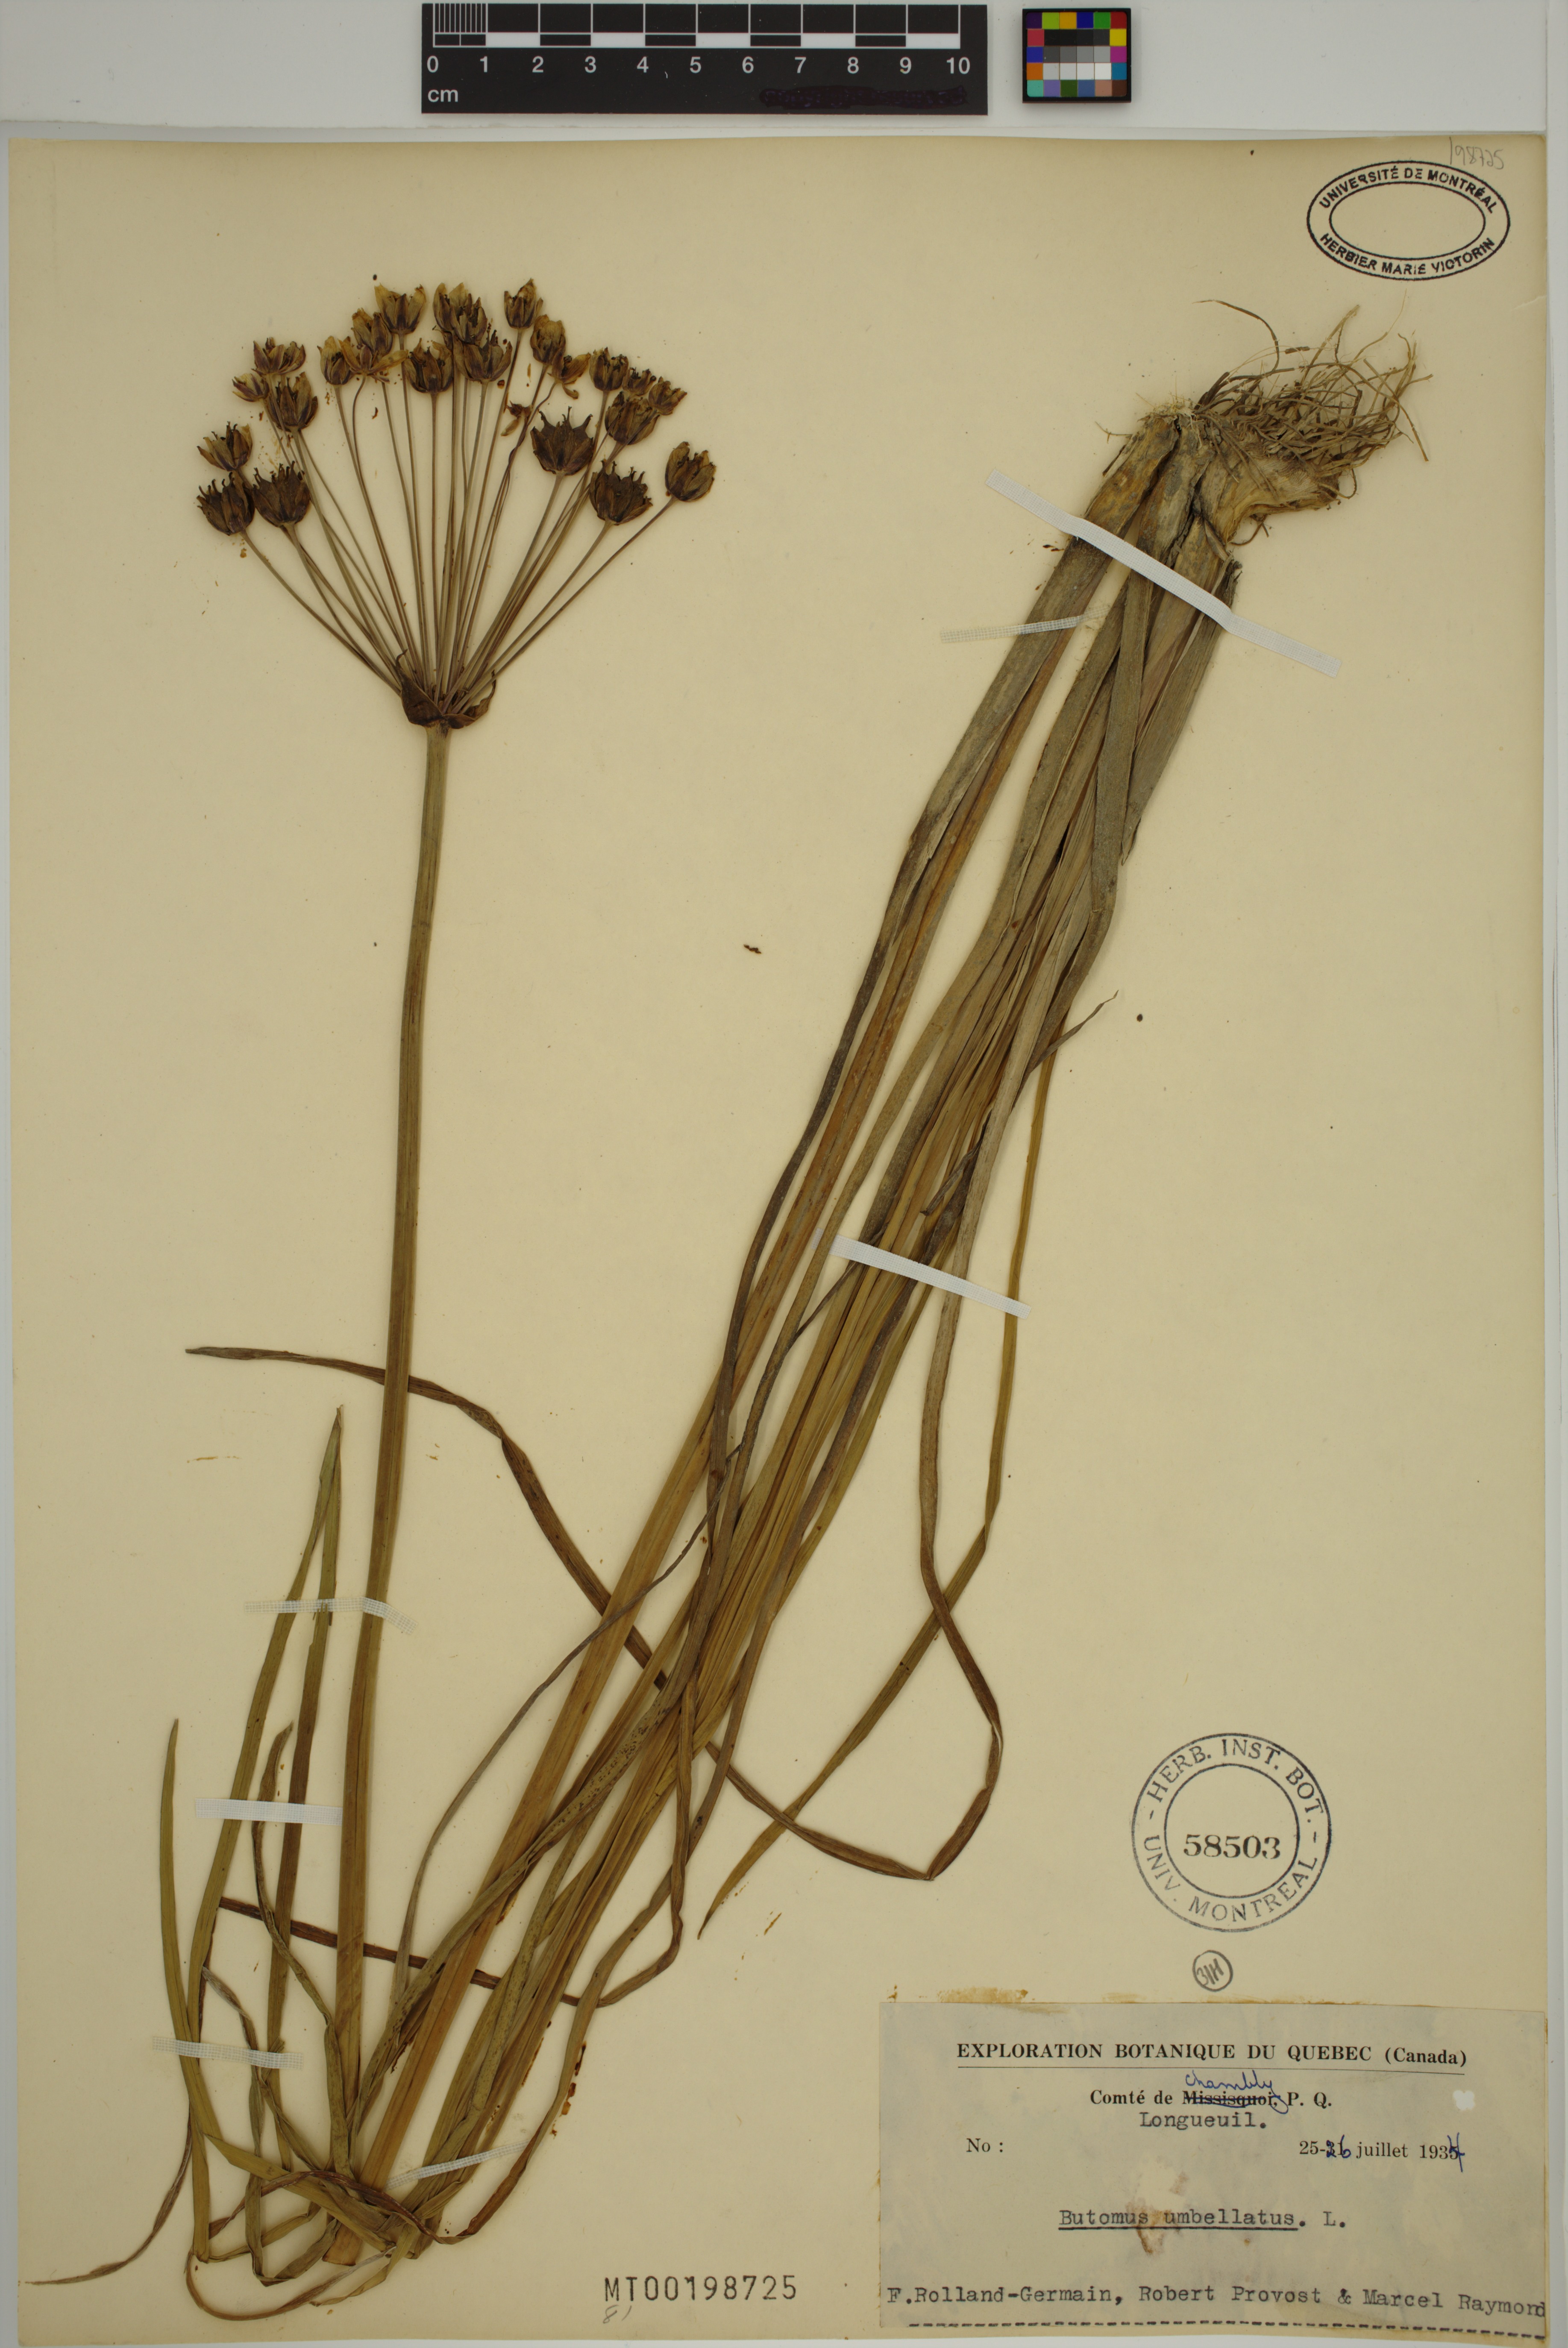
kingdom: Plantae
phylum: Tracheophyta
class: Liliopsida
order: Alismatales
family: Butomaceae
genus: Butomus
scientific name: Butomus umbellatus
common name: Flowering-rush
